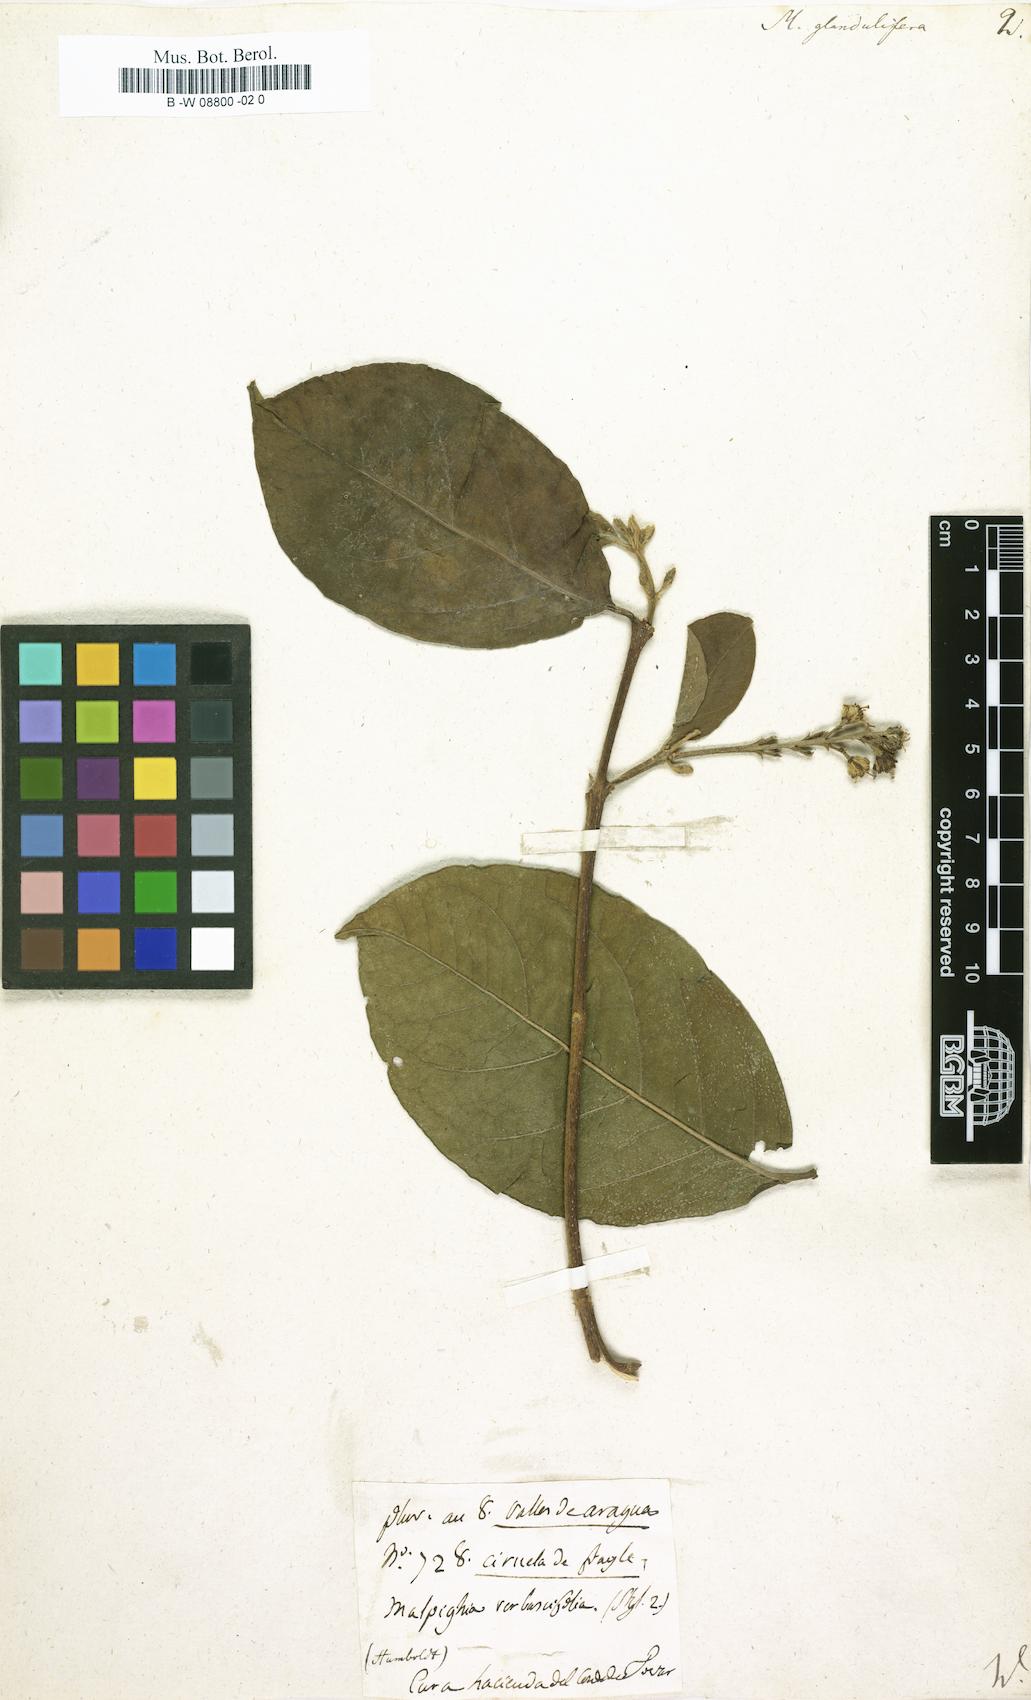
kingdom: Plantae
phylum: Tracheophyta
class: Magnoliopsida
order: Malpighiales
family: Malpighiaceae
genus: Bunchosia
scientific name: Bunchosia glandulifera
